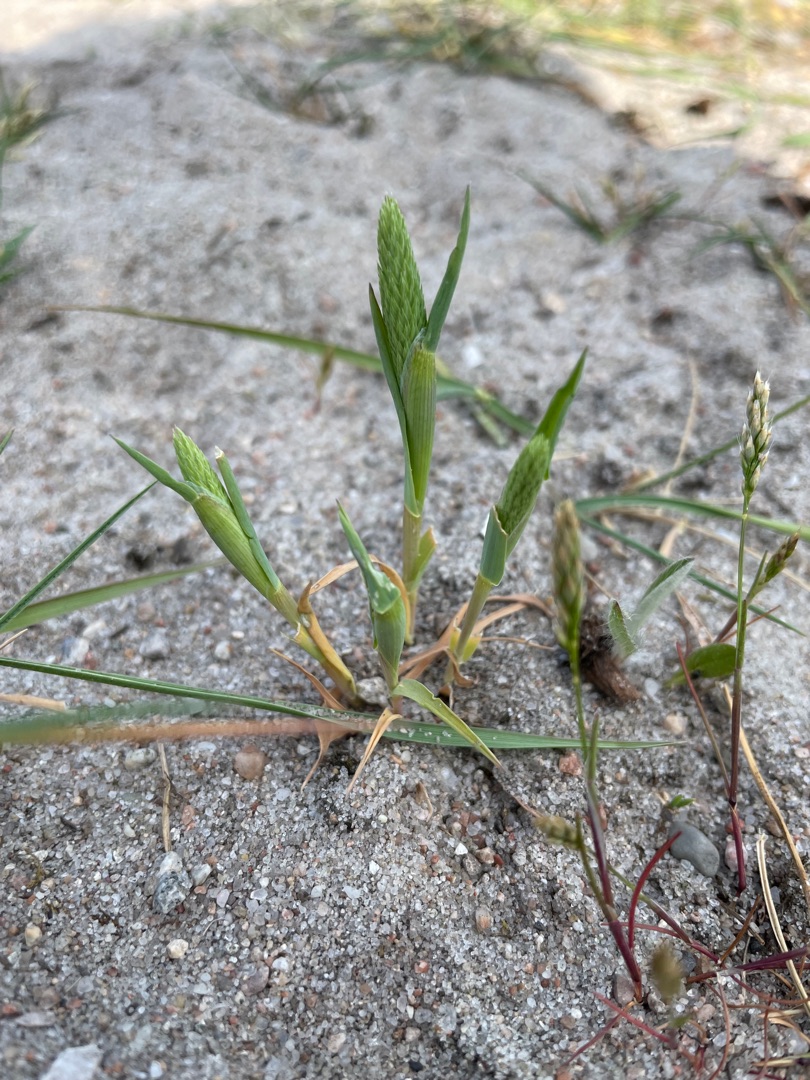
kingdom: Plantae
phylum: Tracheophyta
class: Liliopsida
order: Poales
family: Poaceae
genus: Phleum
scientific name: Phleum arenarium
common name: Sand-rottehale
